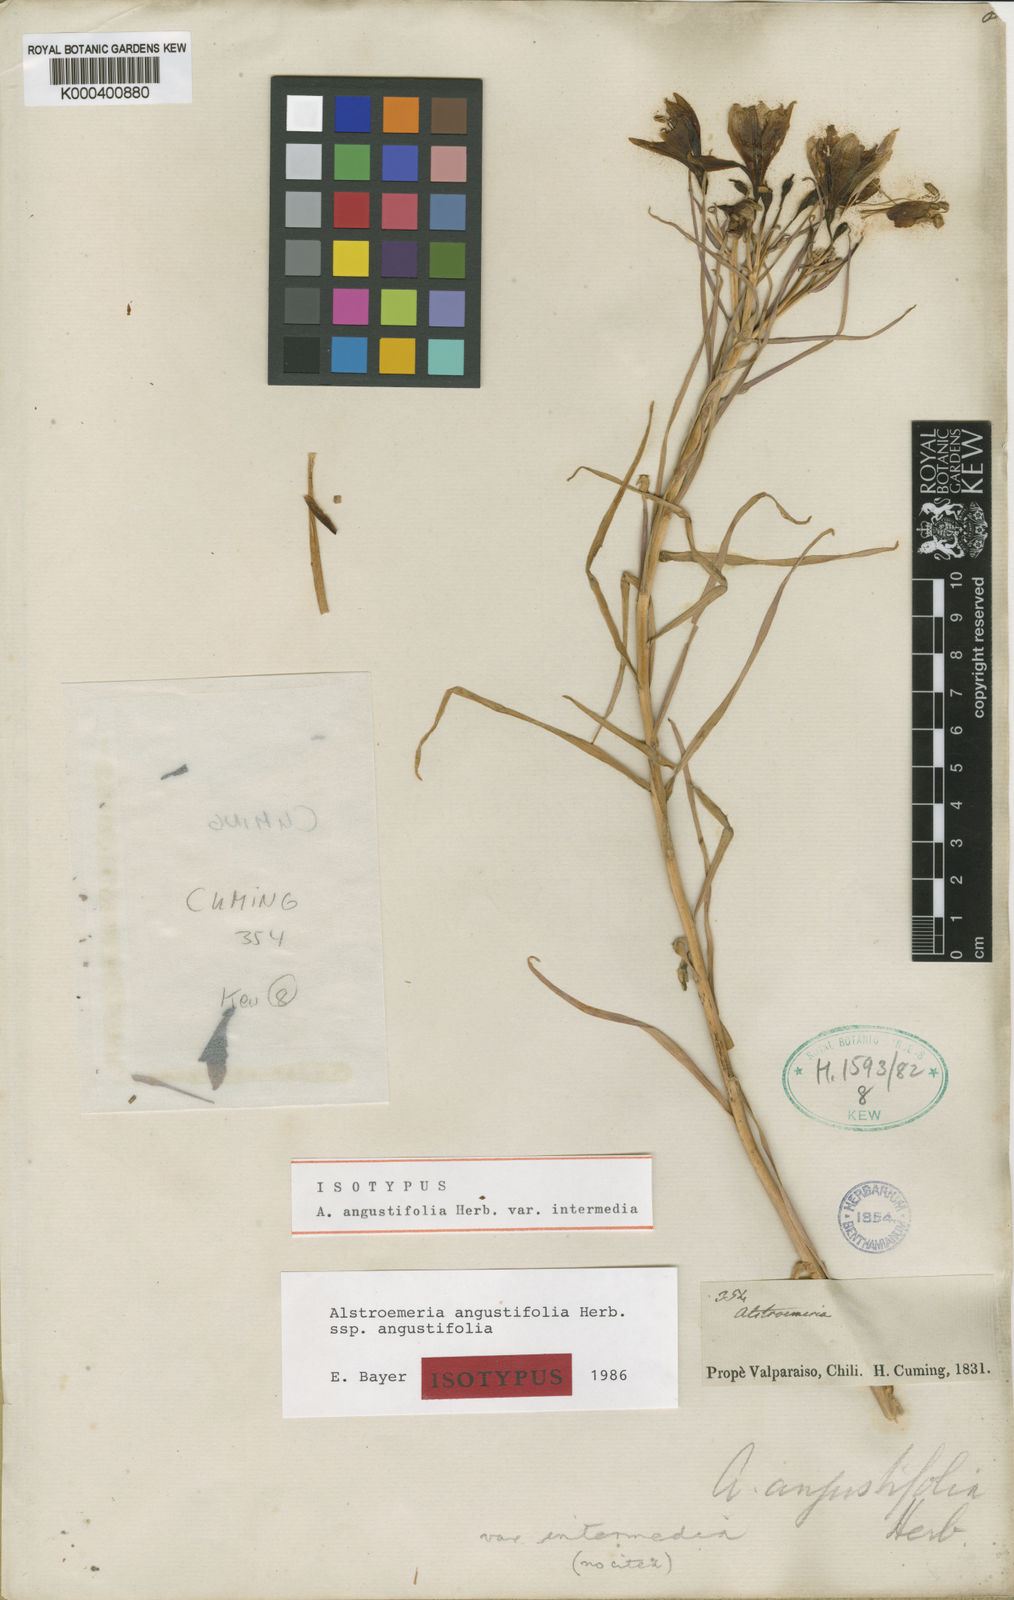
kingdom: Plantae
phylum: Tracheophyta
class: Liliopsida
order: Liliales
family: Alstroemeriaceae
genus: Alstroemeria
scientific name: Alstroemeria angustifolia
